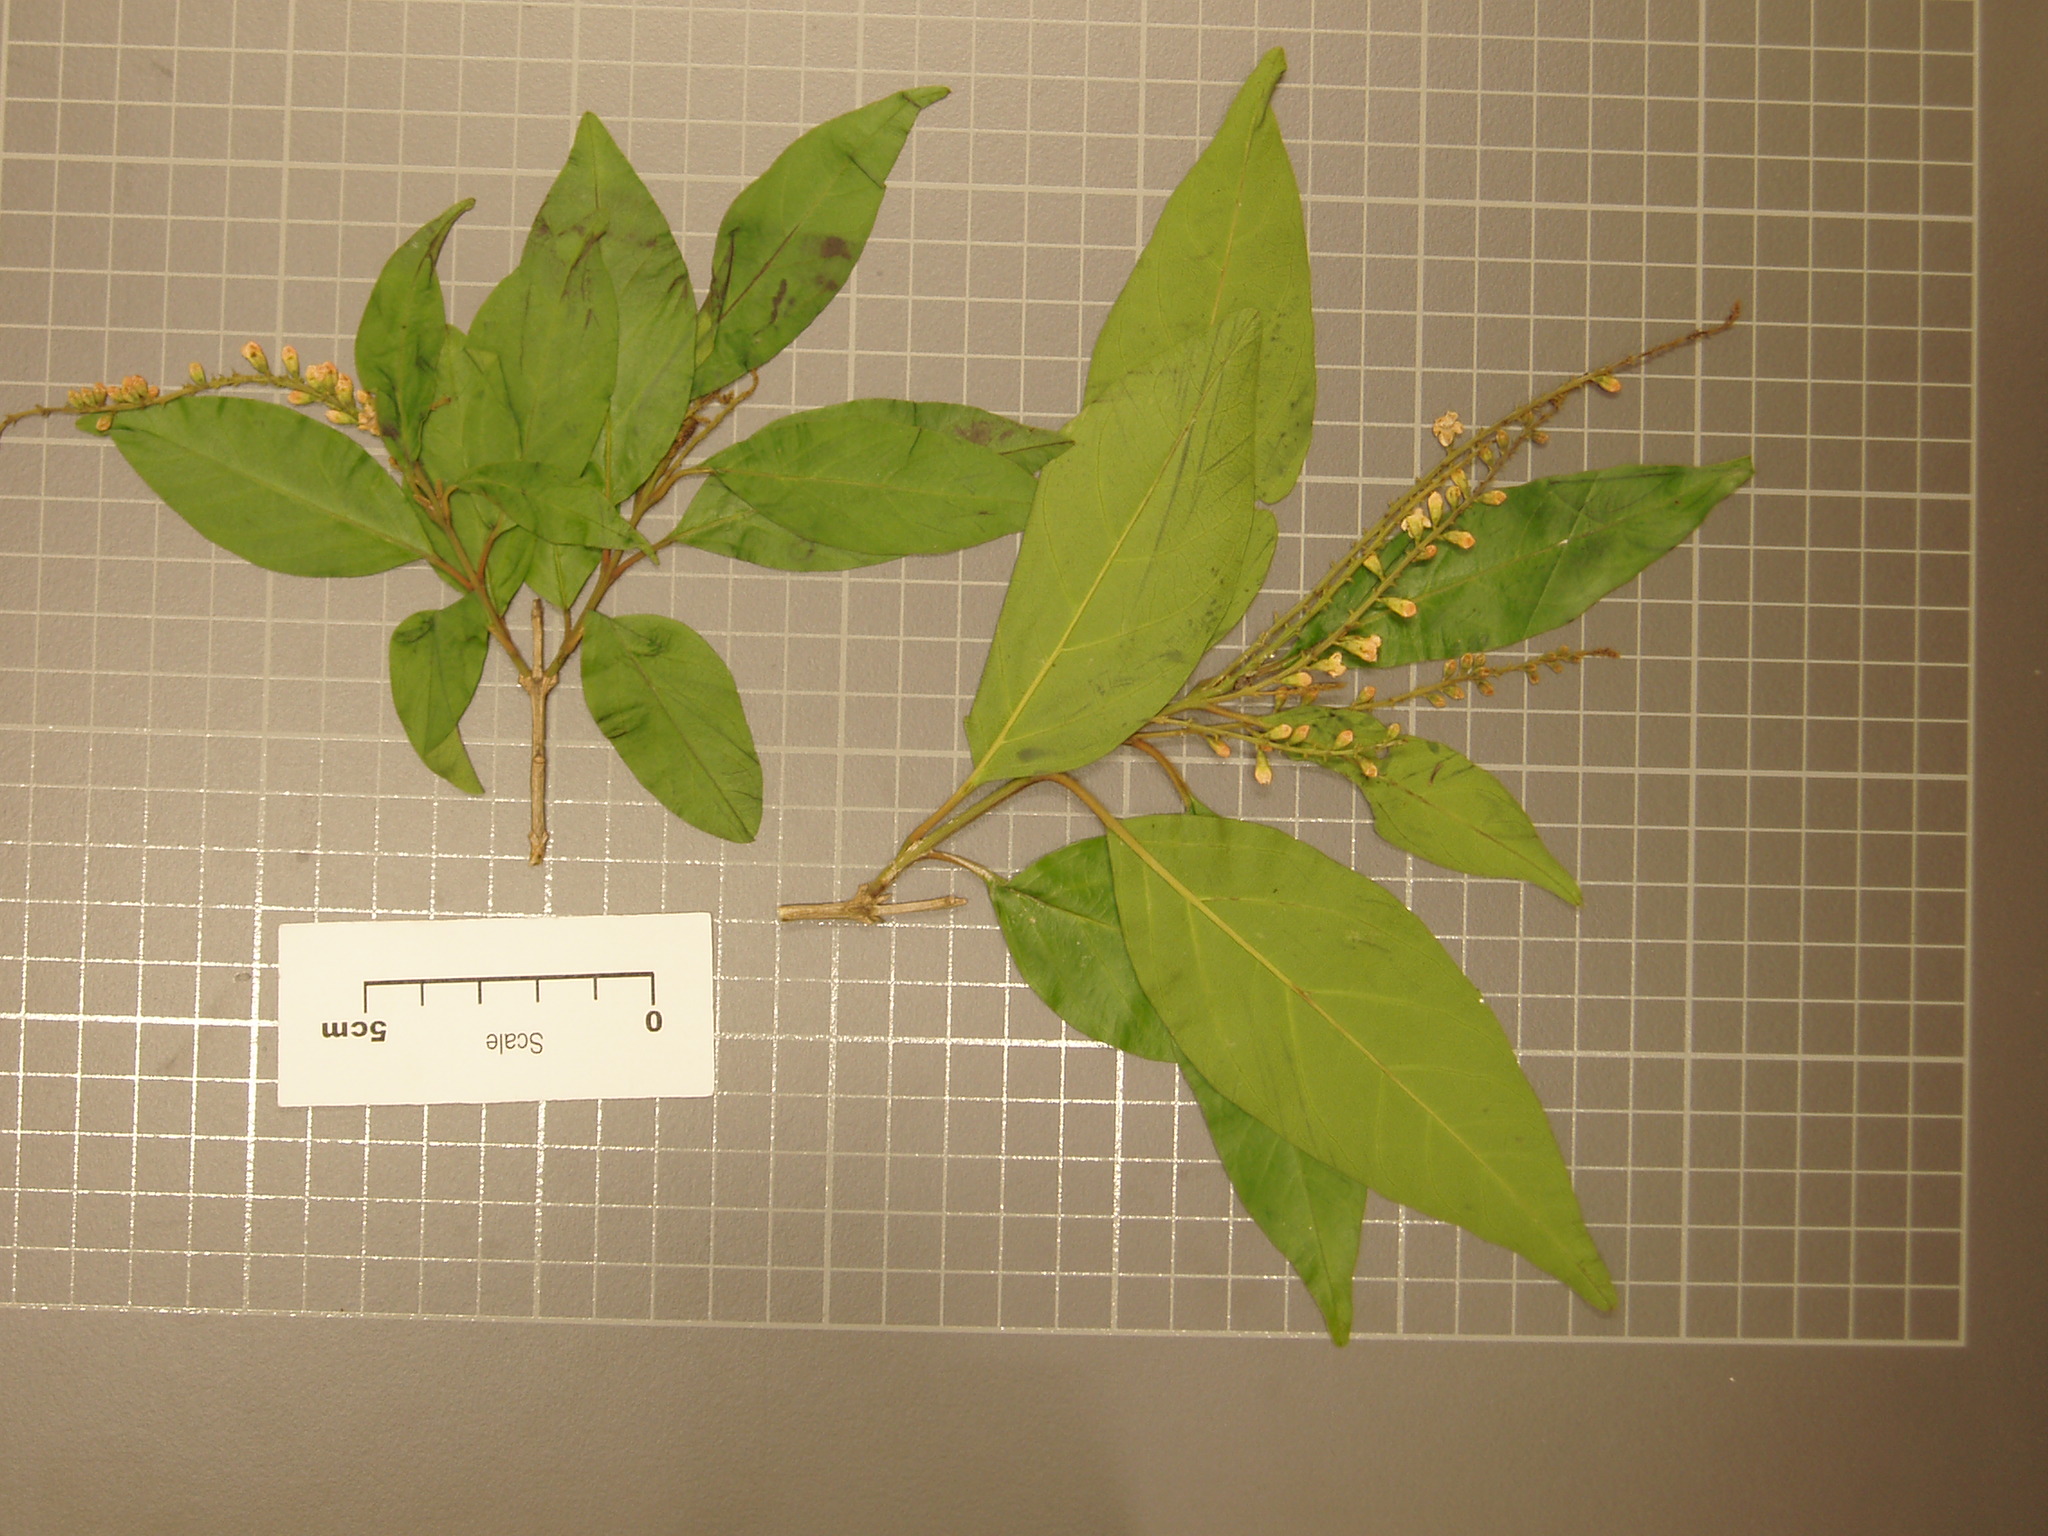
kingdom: Plantae
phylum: Tracheophyta
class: Magnoliopsida
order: Lamiales
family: Verbenaceae
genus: Citharexylum
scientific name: Citharexylum
